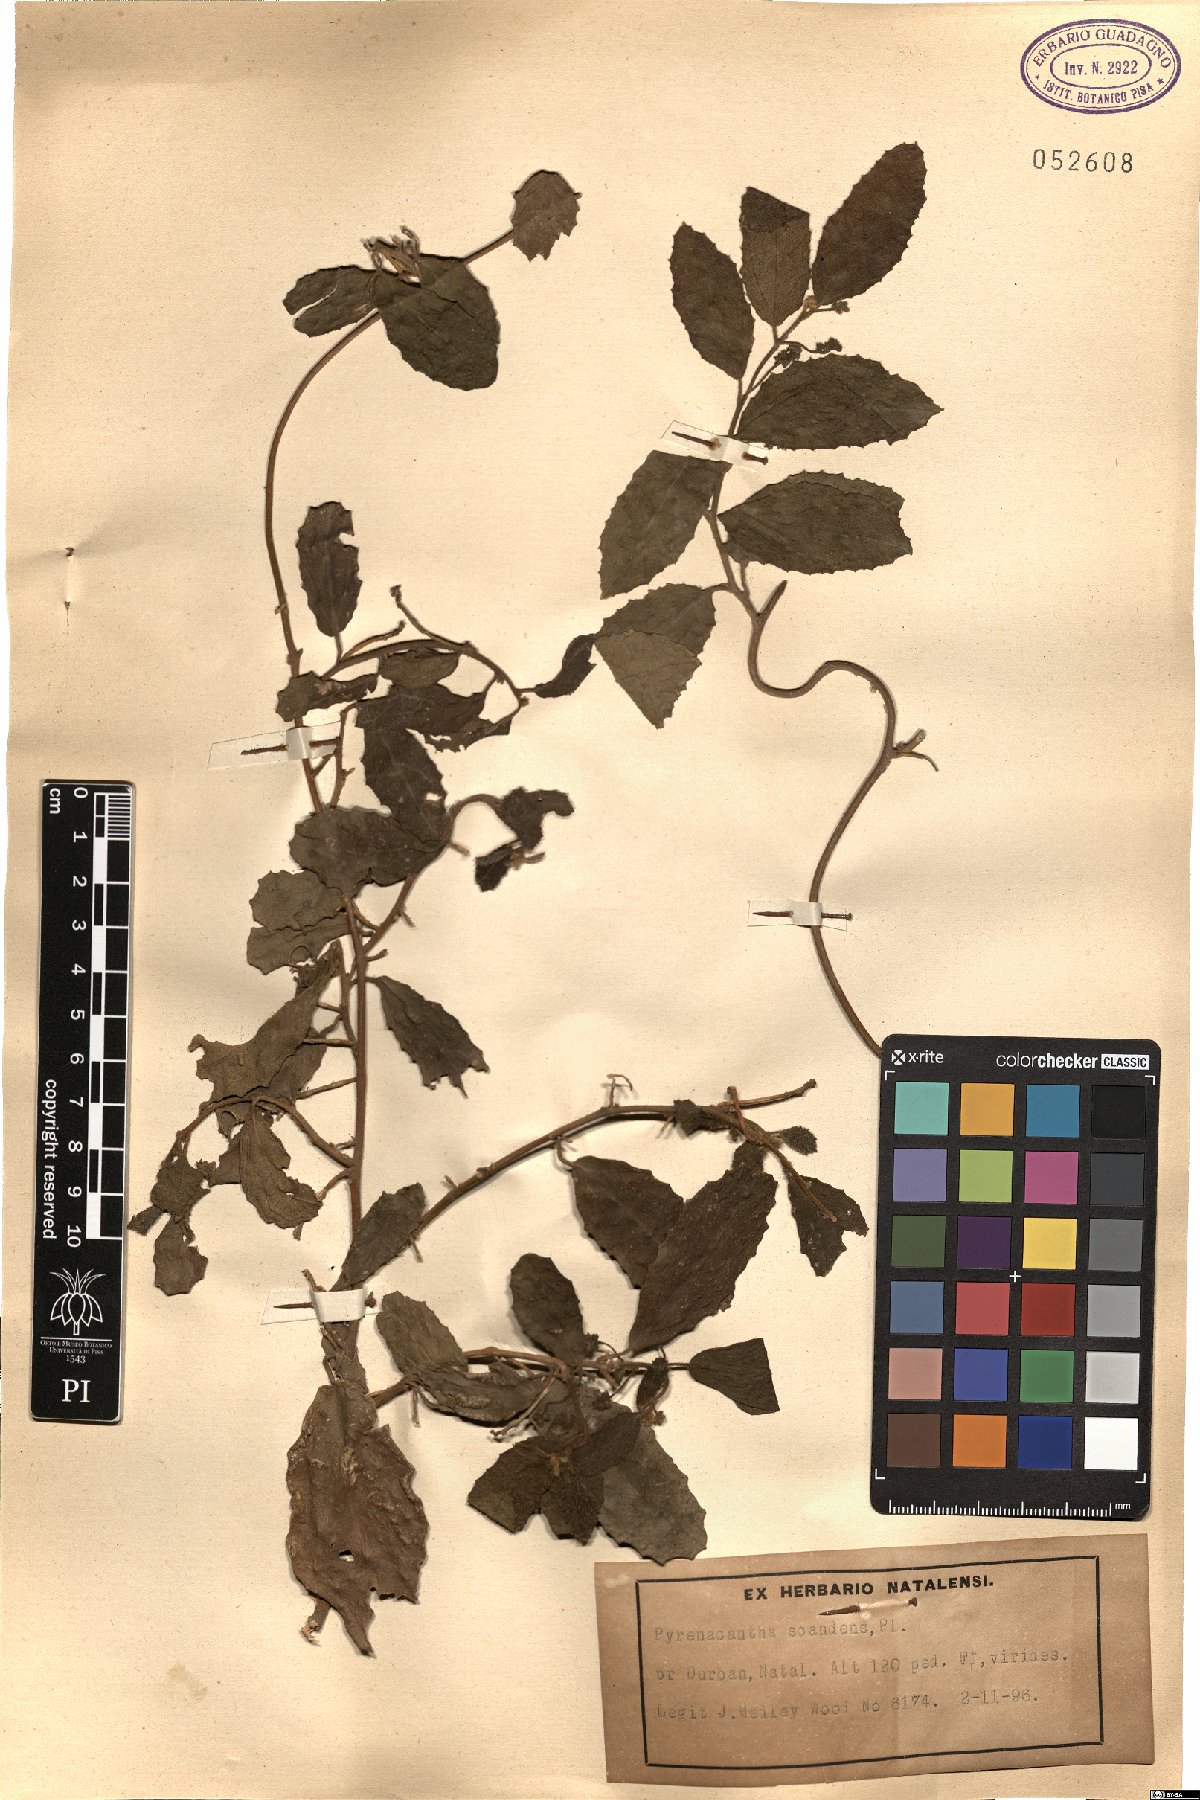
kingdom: Plantae
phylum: Tracheophyta
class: Magnoliopsida
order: Icacinales
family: Icacinaceae
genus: Pyrenacantha
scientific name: Pyrenacantha scandens
